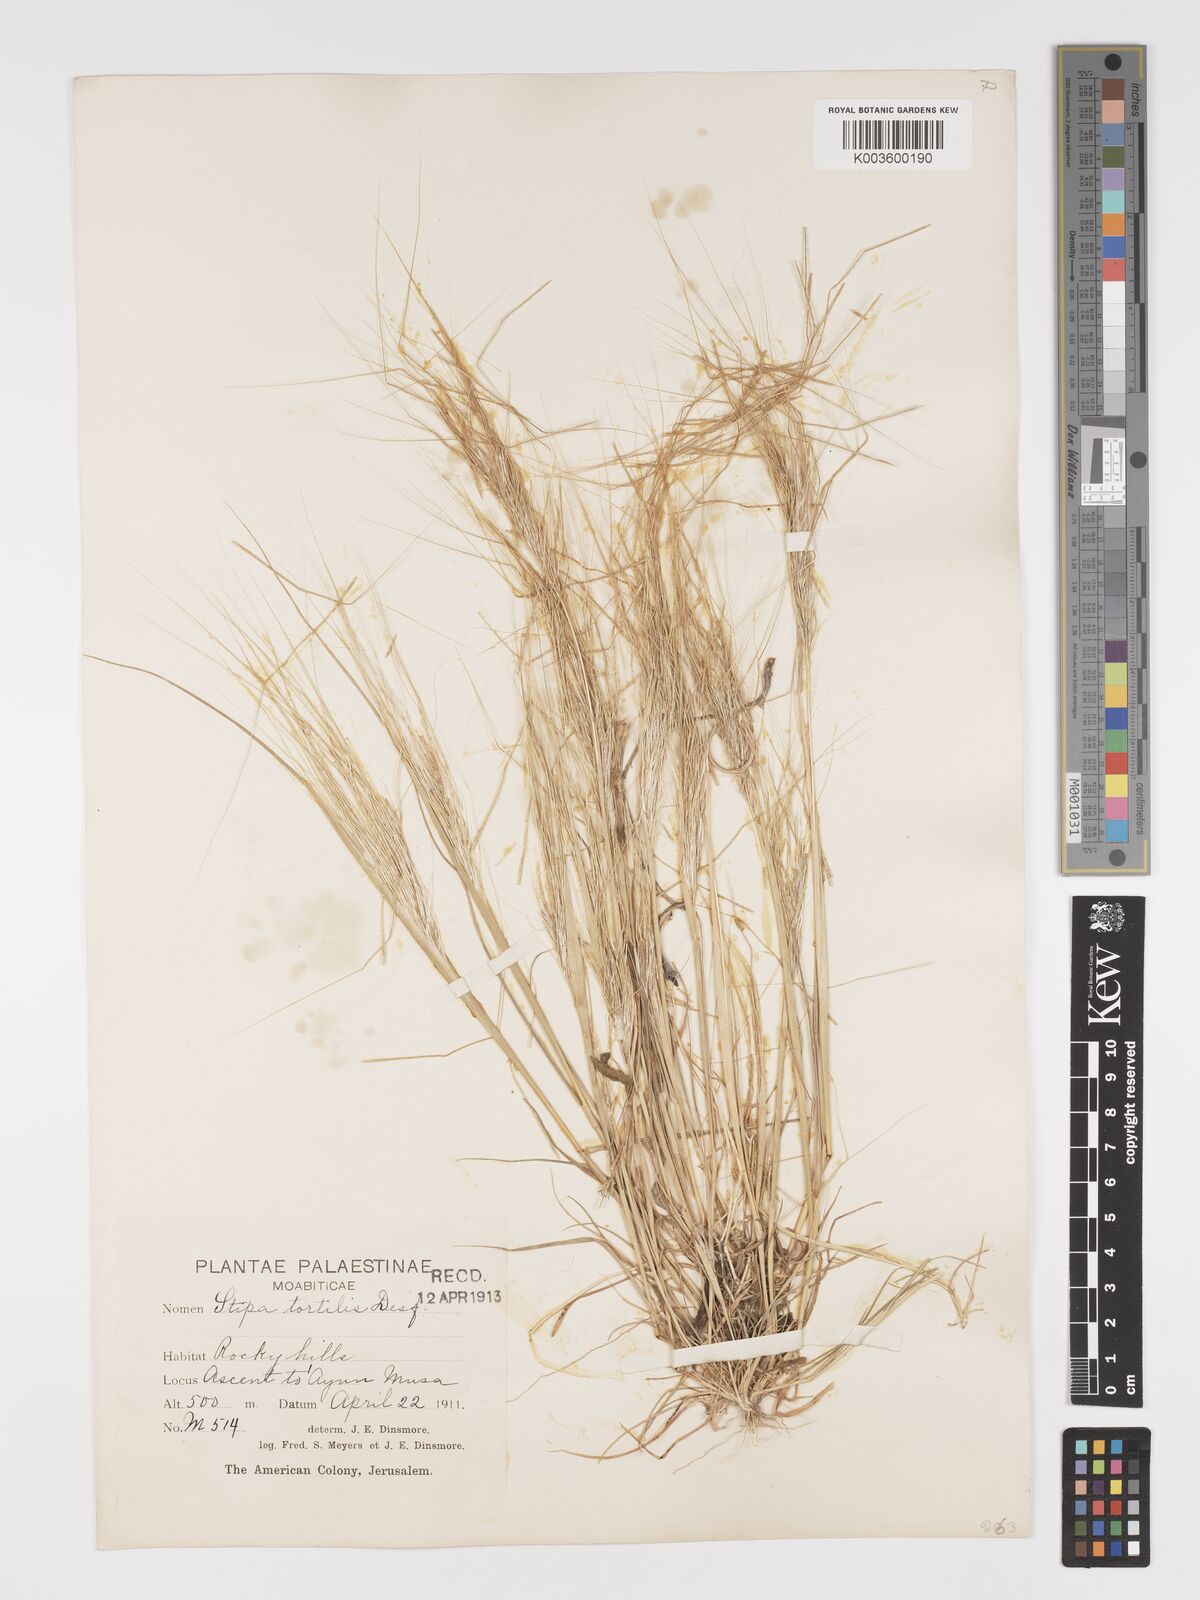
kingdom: Plantae
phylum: Tracheophyta
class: Liliopsida
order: Poales
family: Poaceae
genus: Stipellula
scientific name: Stipellula capensis
